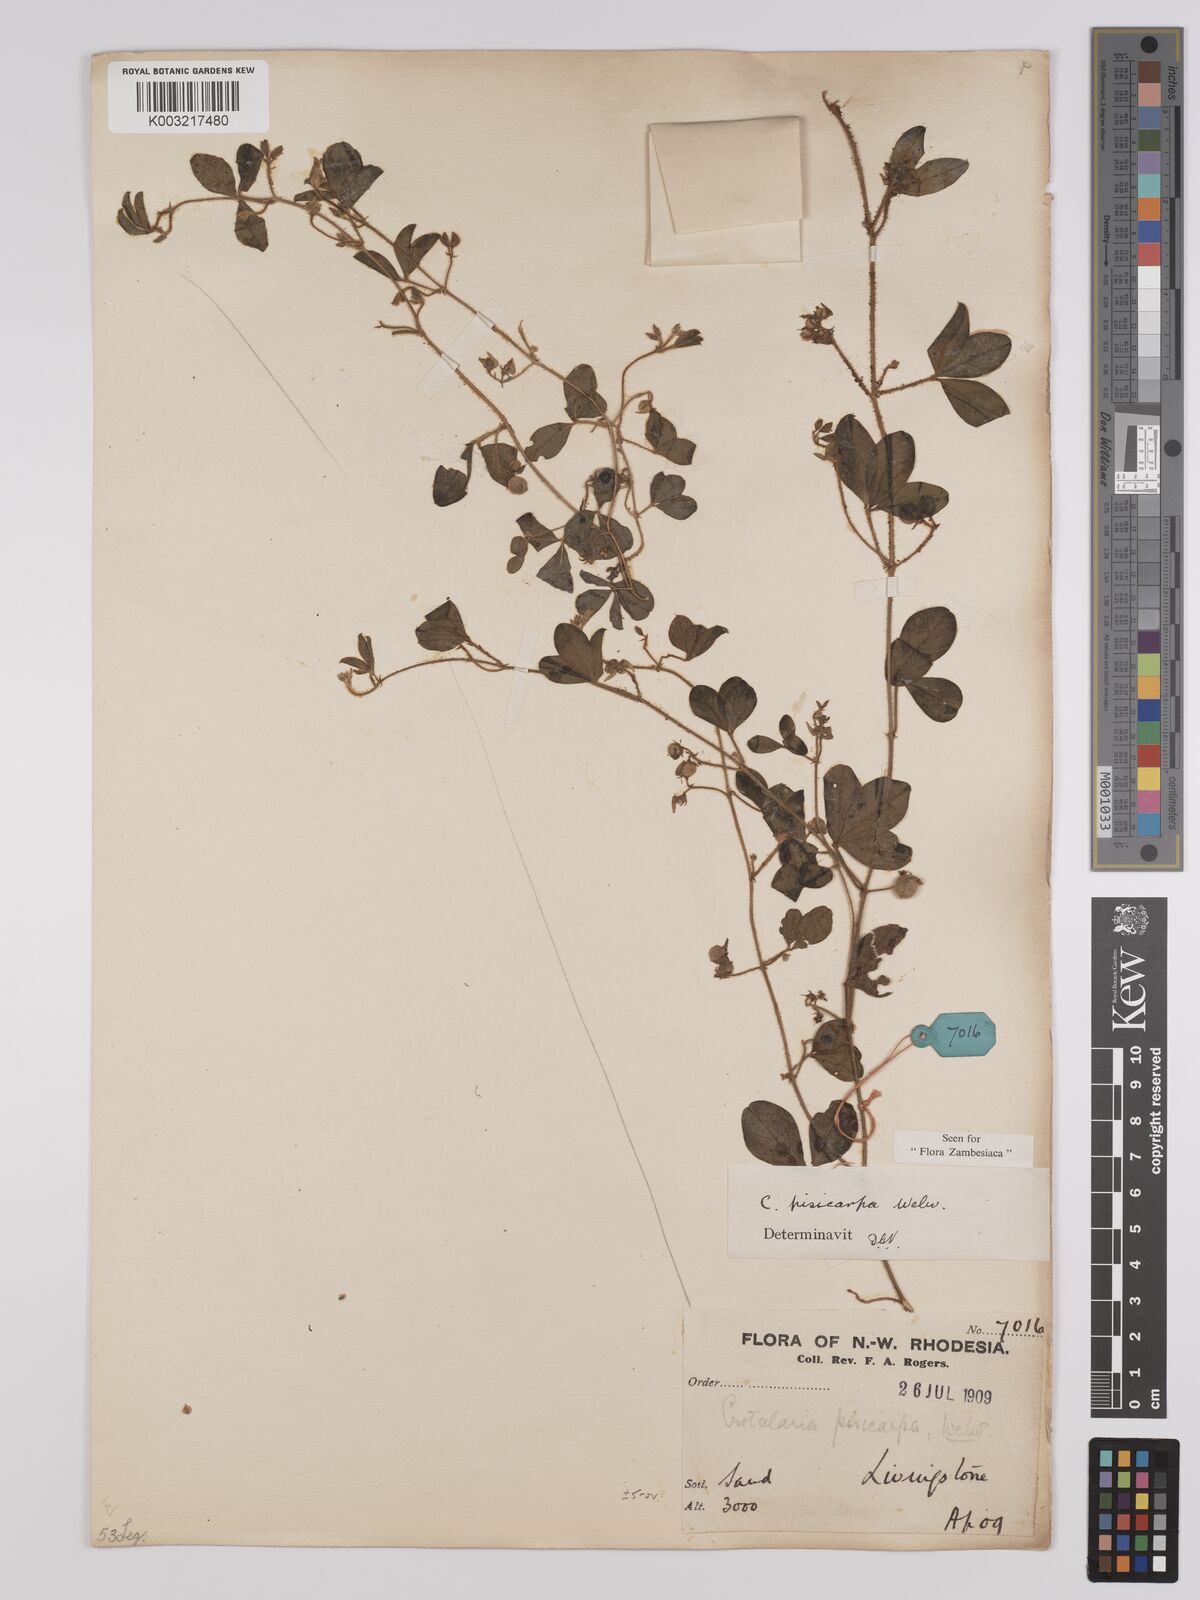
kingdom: Plantae
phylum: Tracheophyta
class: Magnoliopsida
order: Fabales
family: Fabaceae
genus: Crotalaria
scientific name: Crotalaria pisicarpa
